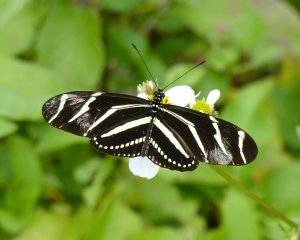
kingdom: Animalia
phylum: Arthropoda
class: Insecta
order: Lepidoptera
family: Nymphalidae
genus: Heliconius
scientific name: Heliconius charithonia
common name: Zebra Longwing
